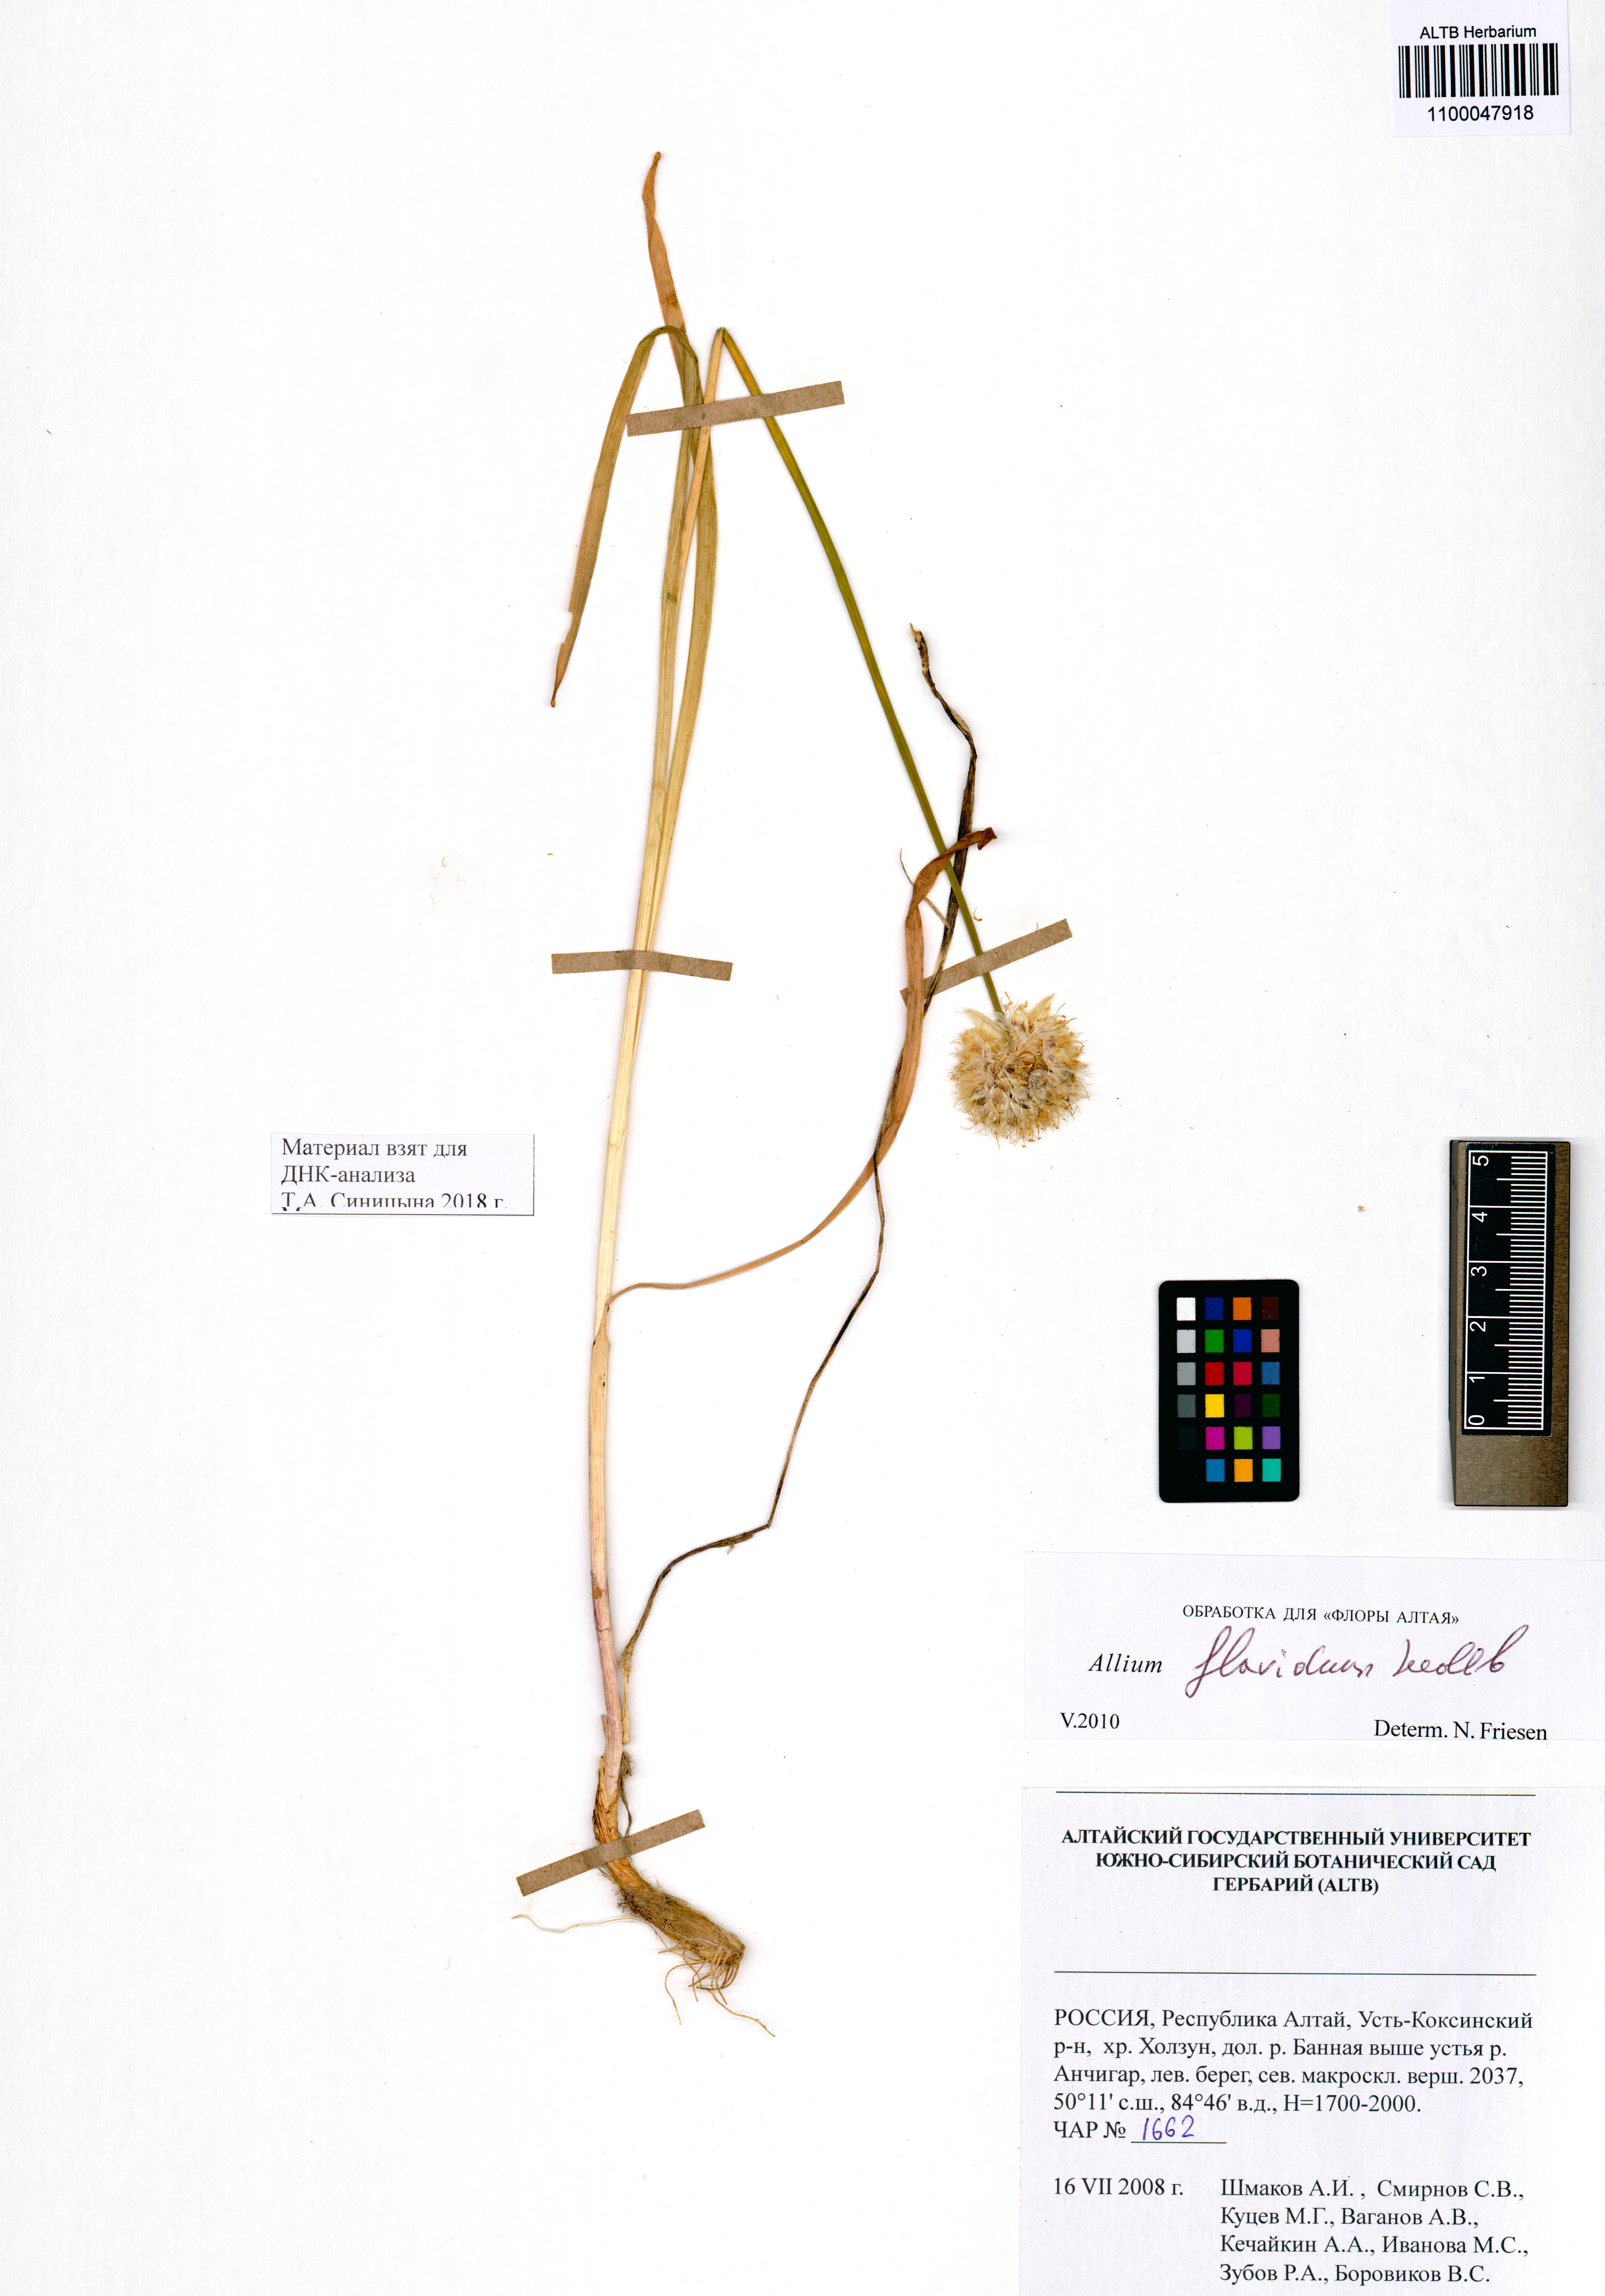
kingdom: Plantae
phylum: Tracheophyta
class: Liliopsida
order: Asparagales
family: Amaryllidaceae
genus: Allium
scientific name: Allium flavidum
